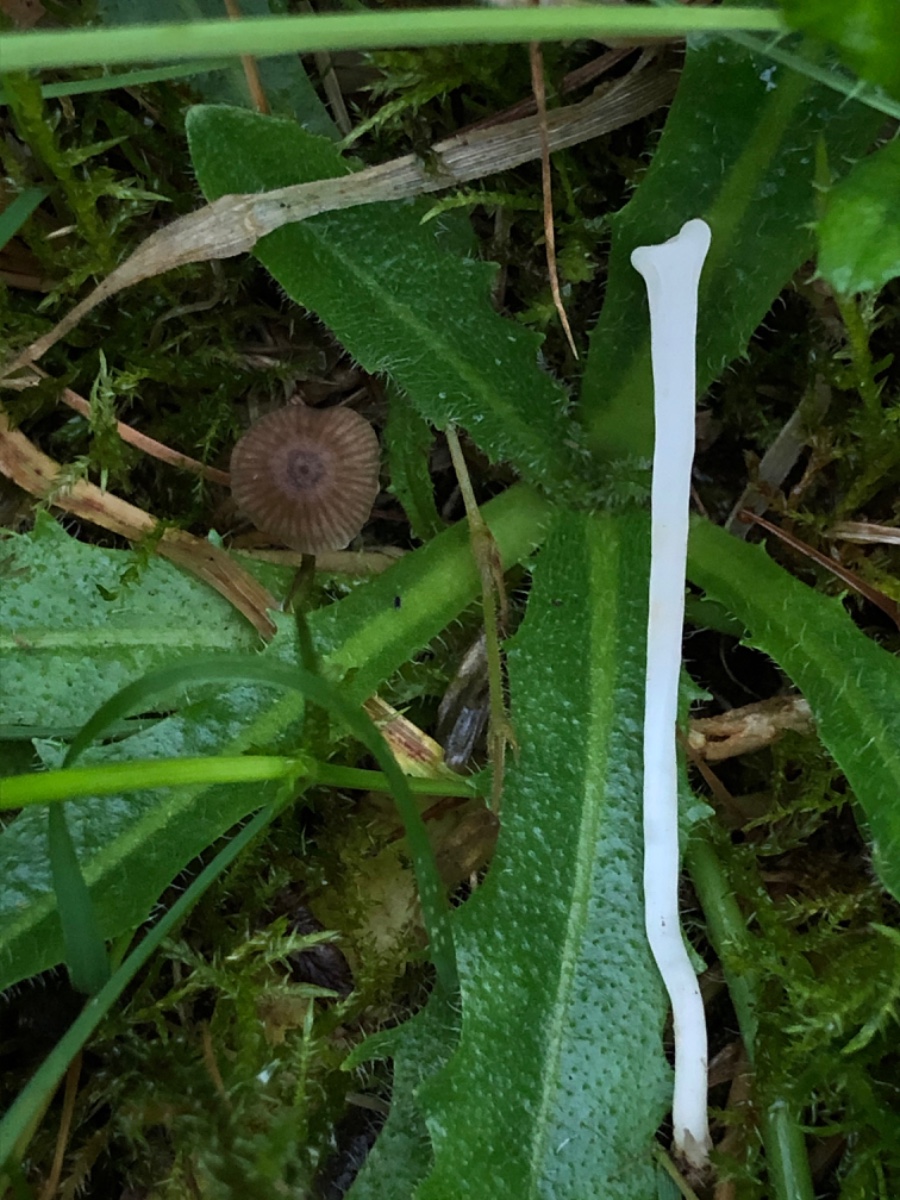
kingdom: Fungi
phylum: Basidiomycota
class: Agaricomycetes
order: Agaricales
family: Clavariaceae
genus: Clavaria
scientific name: Clavaria
